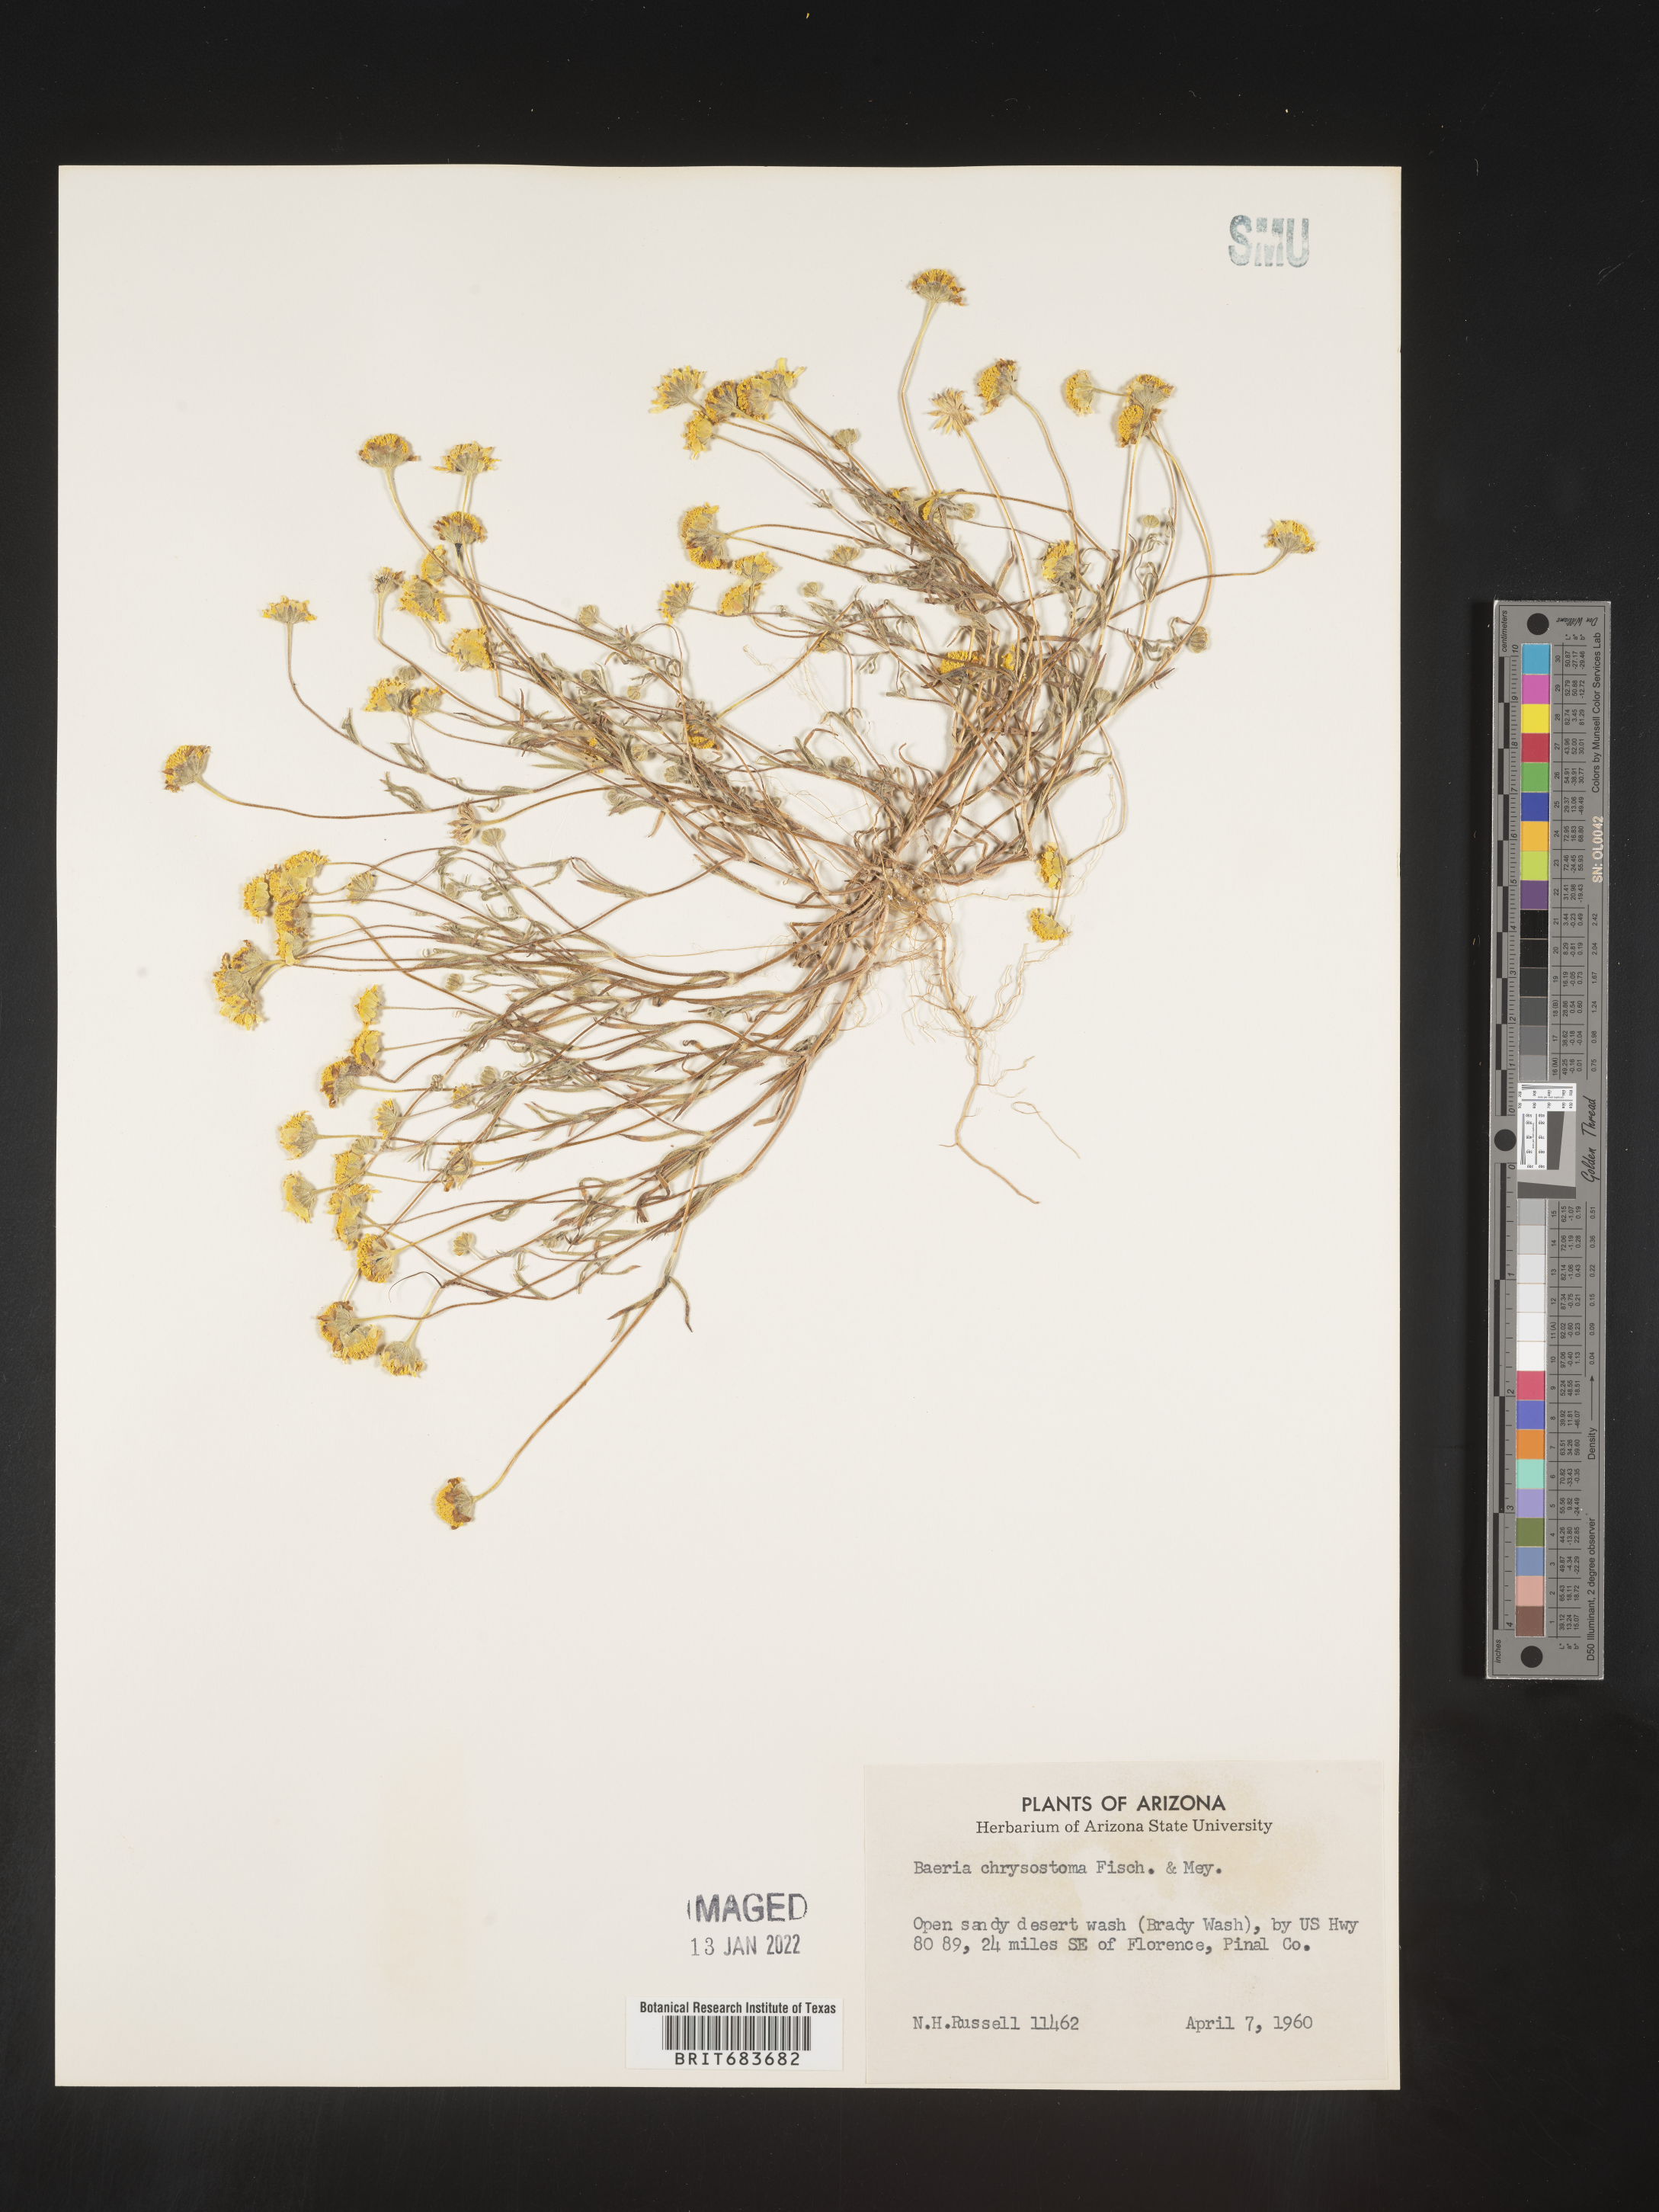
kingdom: Plantae
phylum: Tracheophyta
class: Magnoliopsida
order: Asterales
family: Asteraceae
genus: Lasthenia
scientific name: Lasthenia
